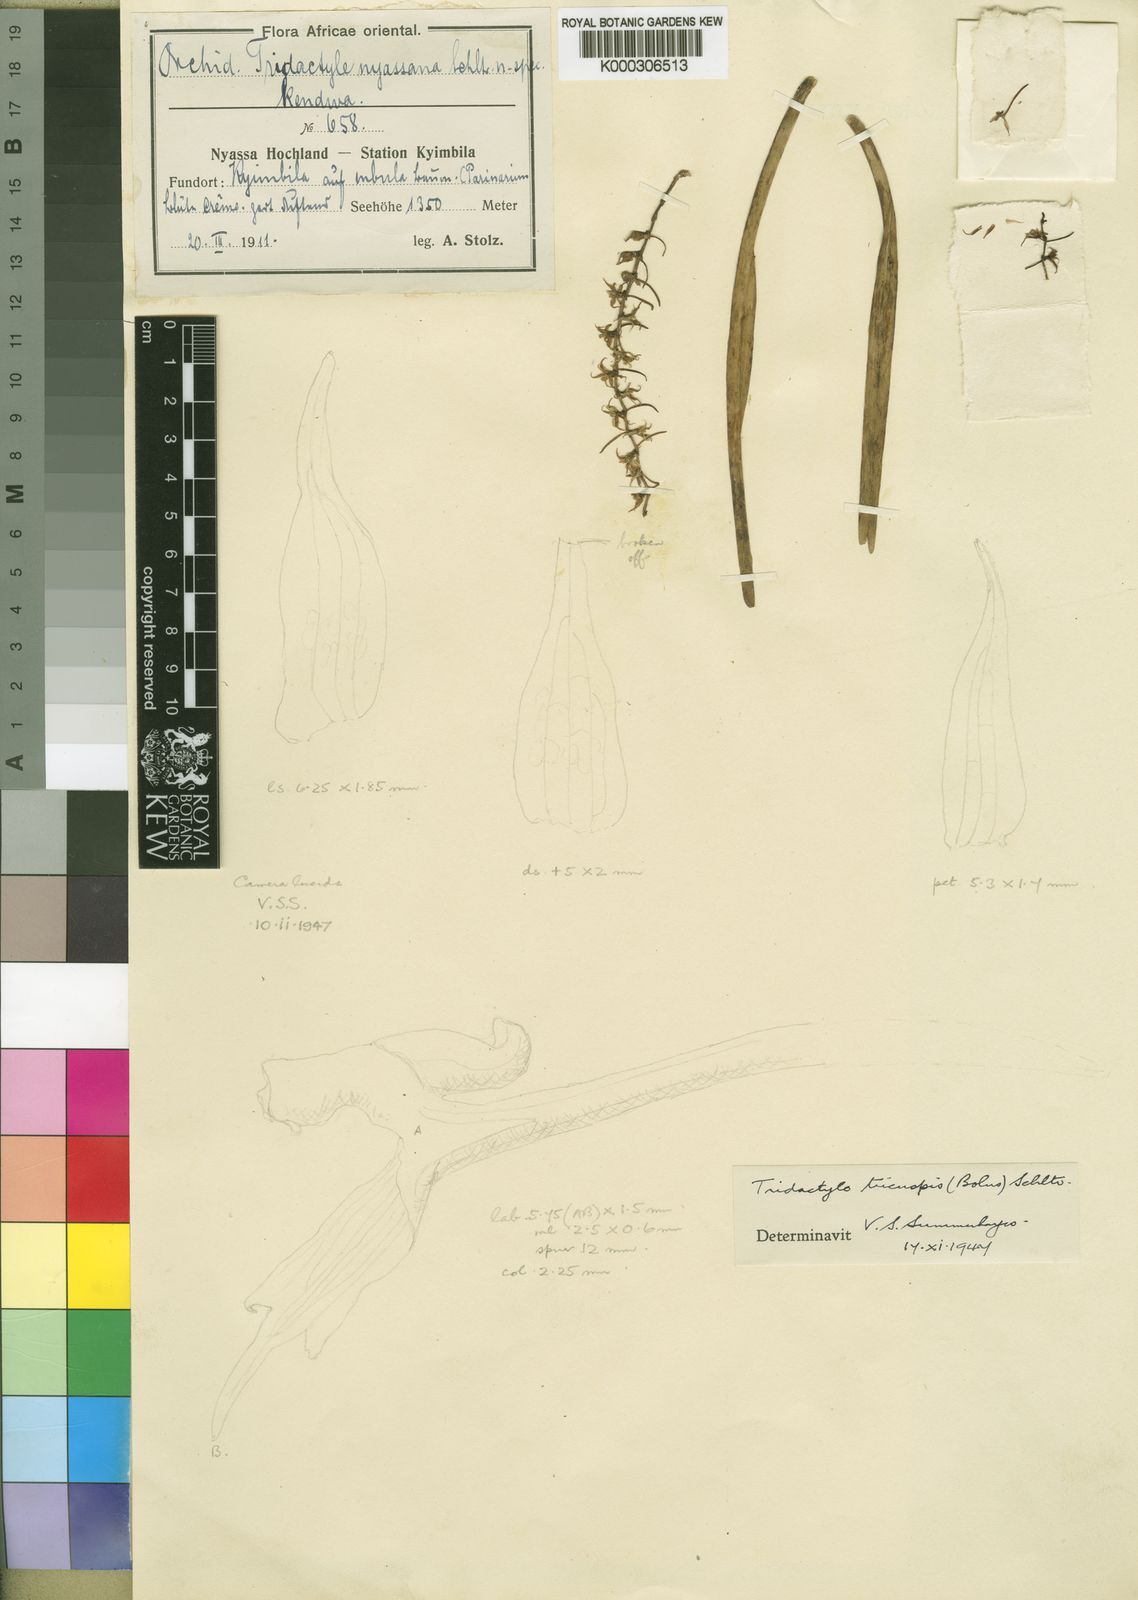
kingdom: Plantae
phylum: Tracheophyta
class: Liliopsida
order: Asparagales
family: Orchidaceae
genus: Ypsilopus
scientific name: Ypsilopus tricuspis
